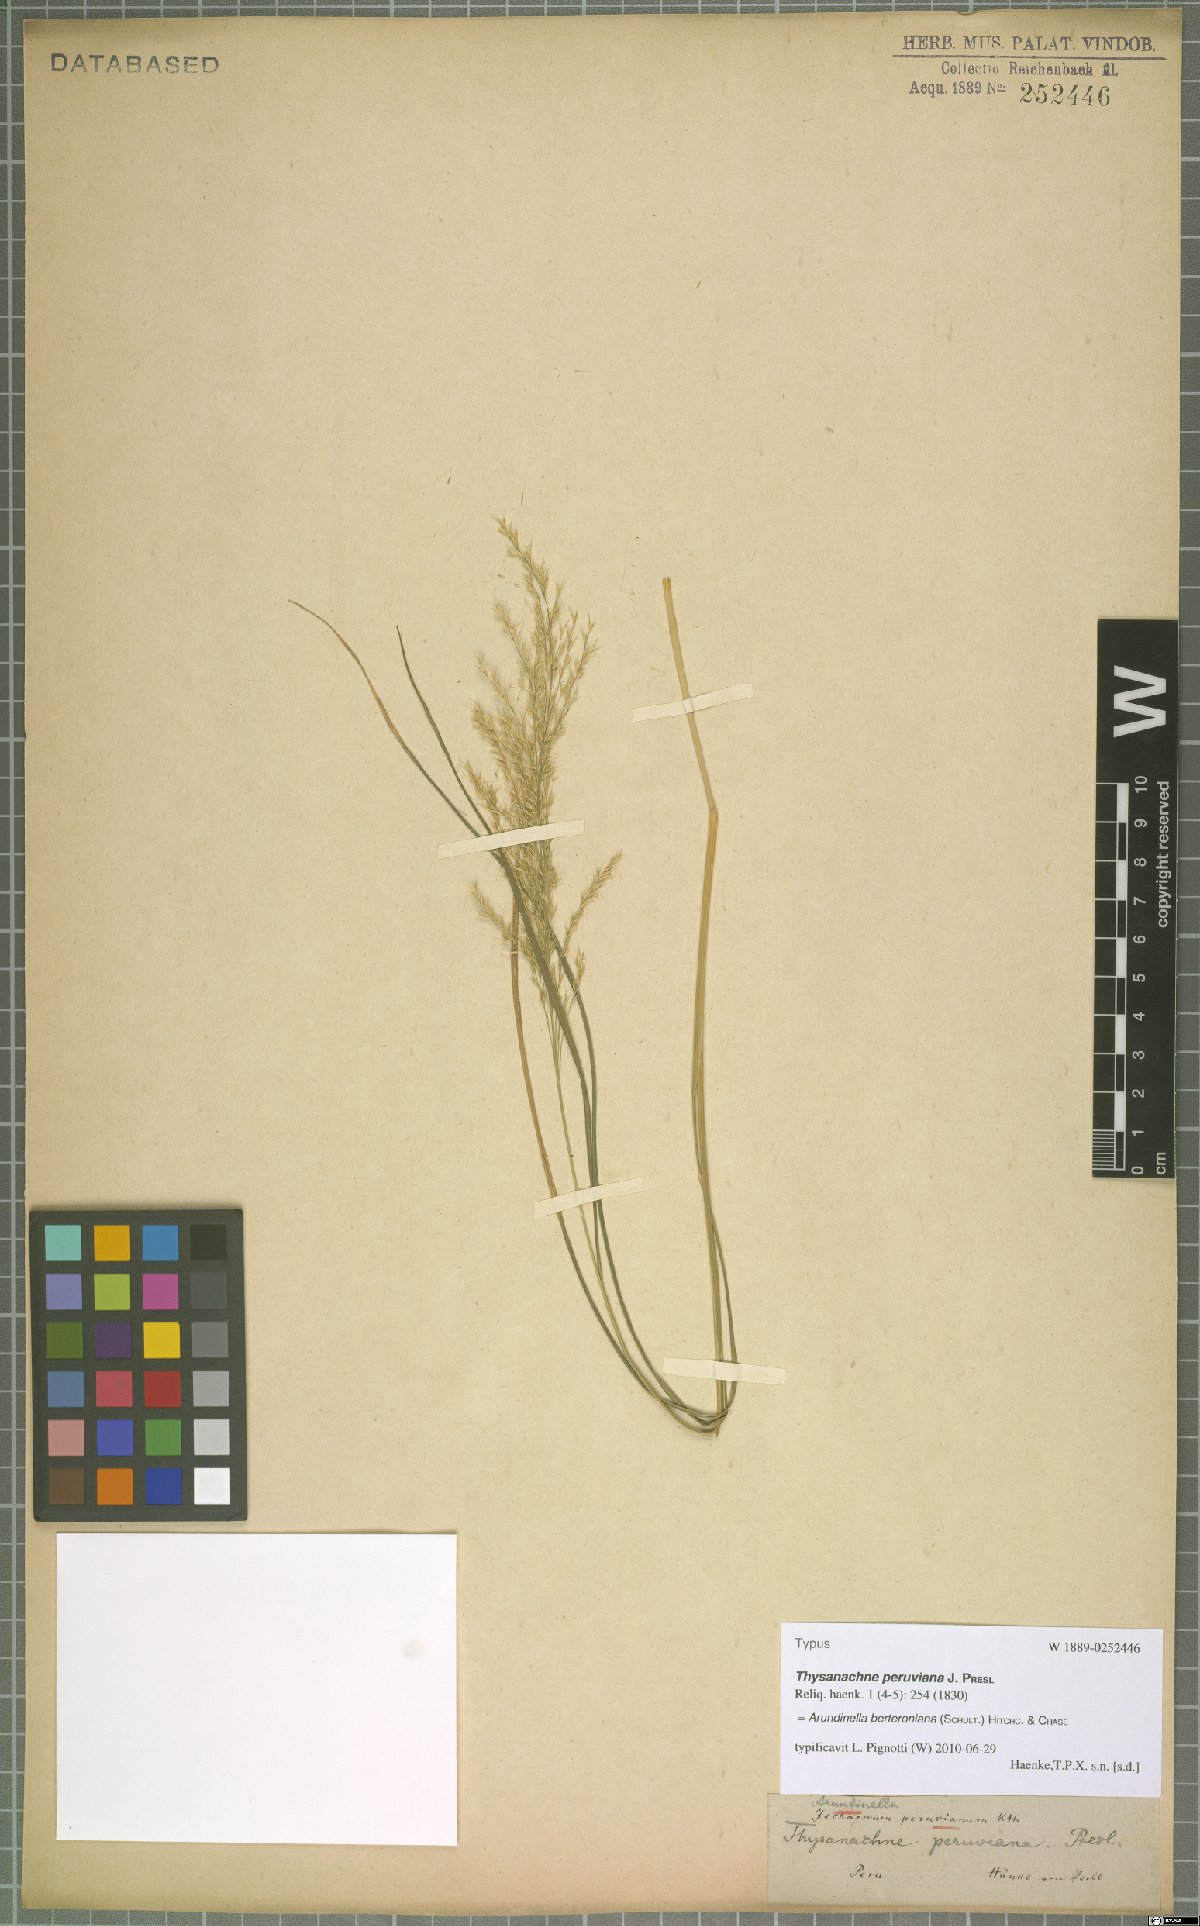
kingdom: Plantae
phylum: Tracheophyta
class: Liliopsida
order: Poales
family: Poaceae
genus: Arundinella
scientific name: Arundinella berteroniana
